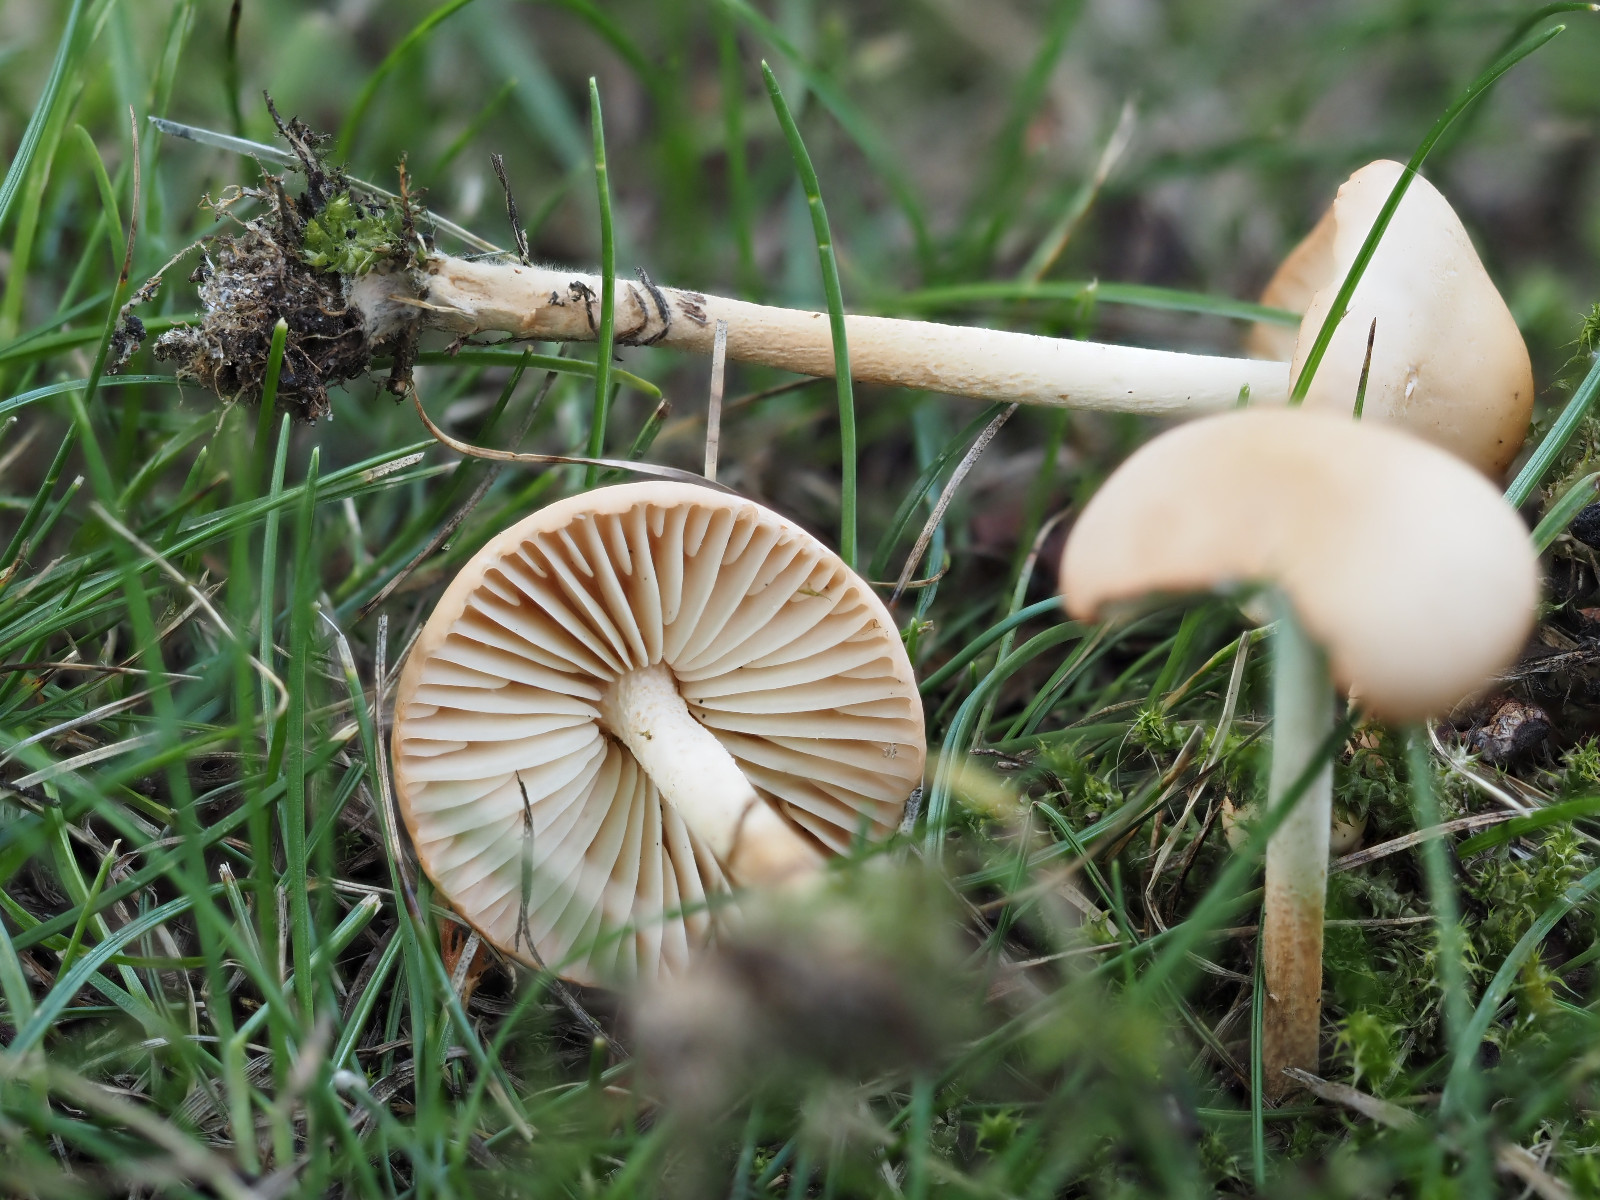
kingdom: Fungi
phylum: Basidiomycota
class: Agaricomycetes
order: Agaricales
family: Marasmiaceae
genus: Marasmius
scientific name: Marasmius oreades
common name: elledans-bruskhat
